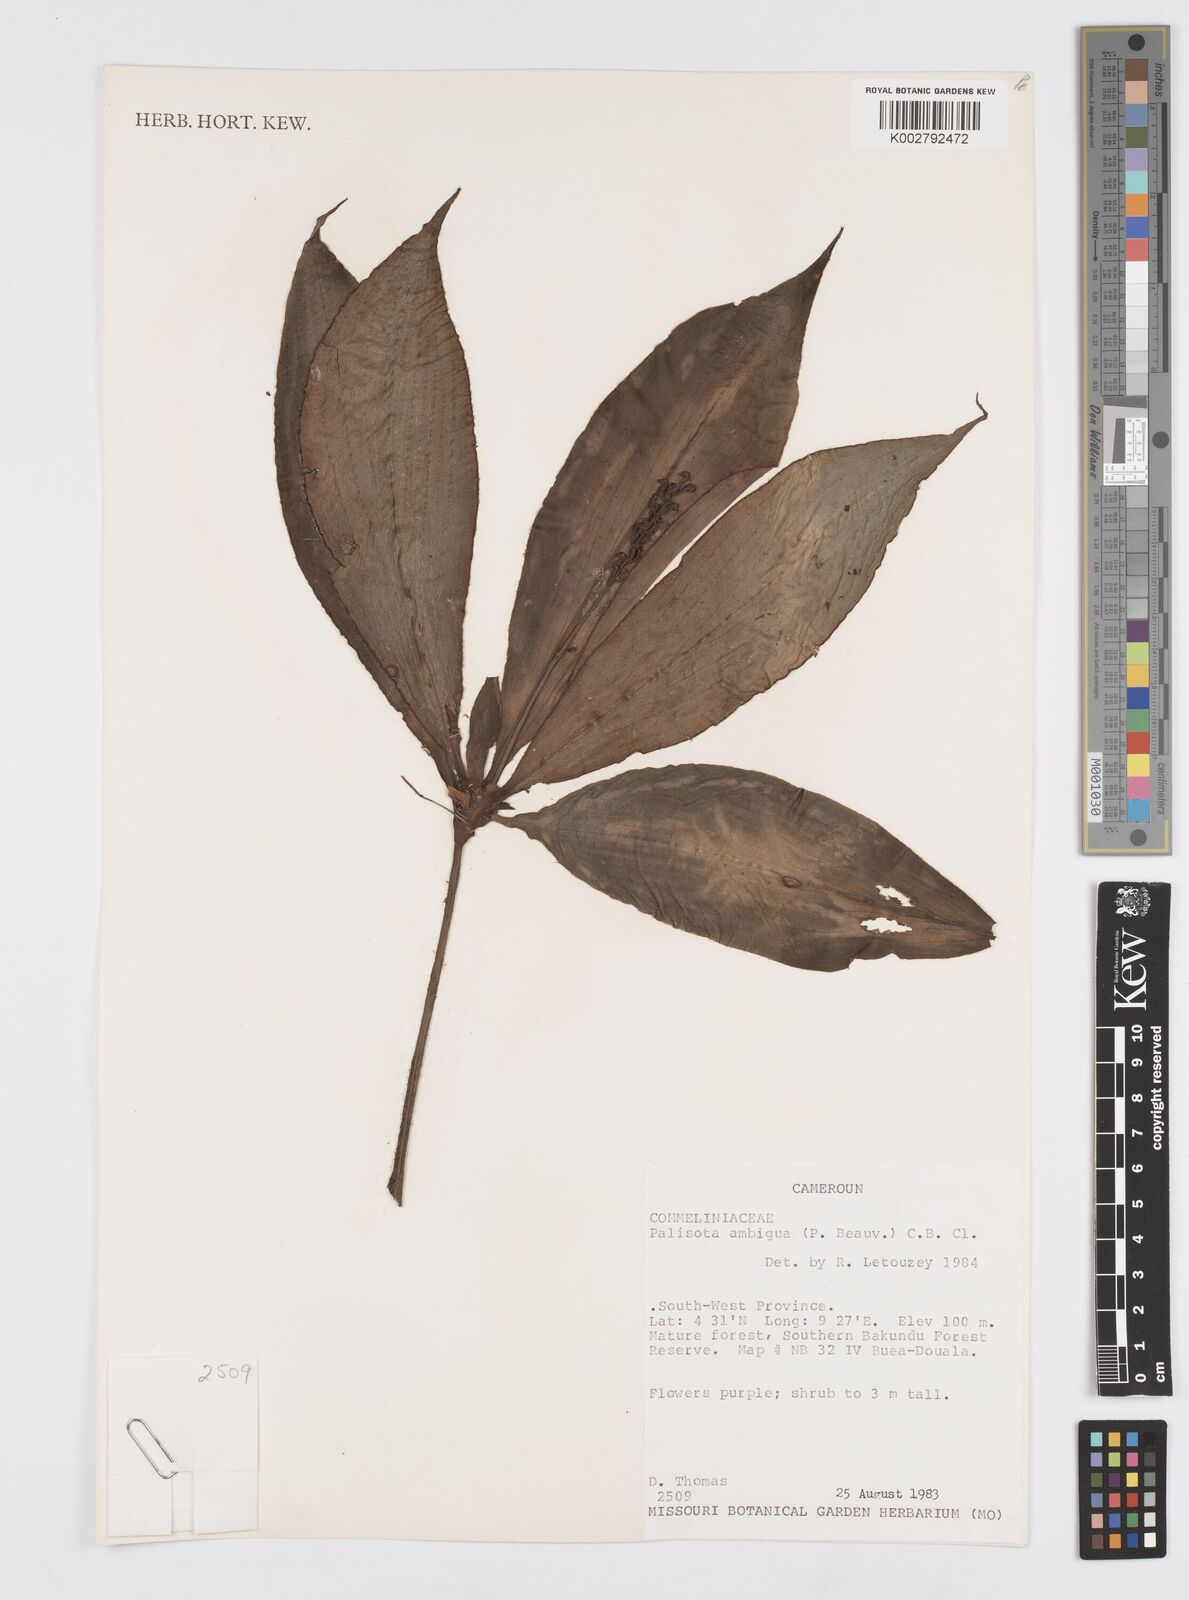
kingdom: Plantae
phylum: Tracheophyta
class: Liliopsida
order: Commelinales
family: Commelinaceae
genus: Palisota
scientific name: Palisota ambigua
